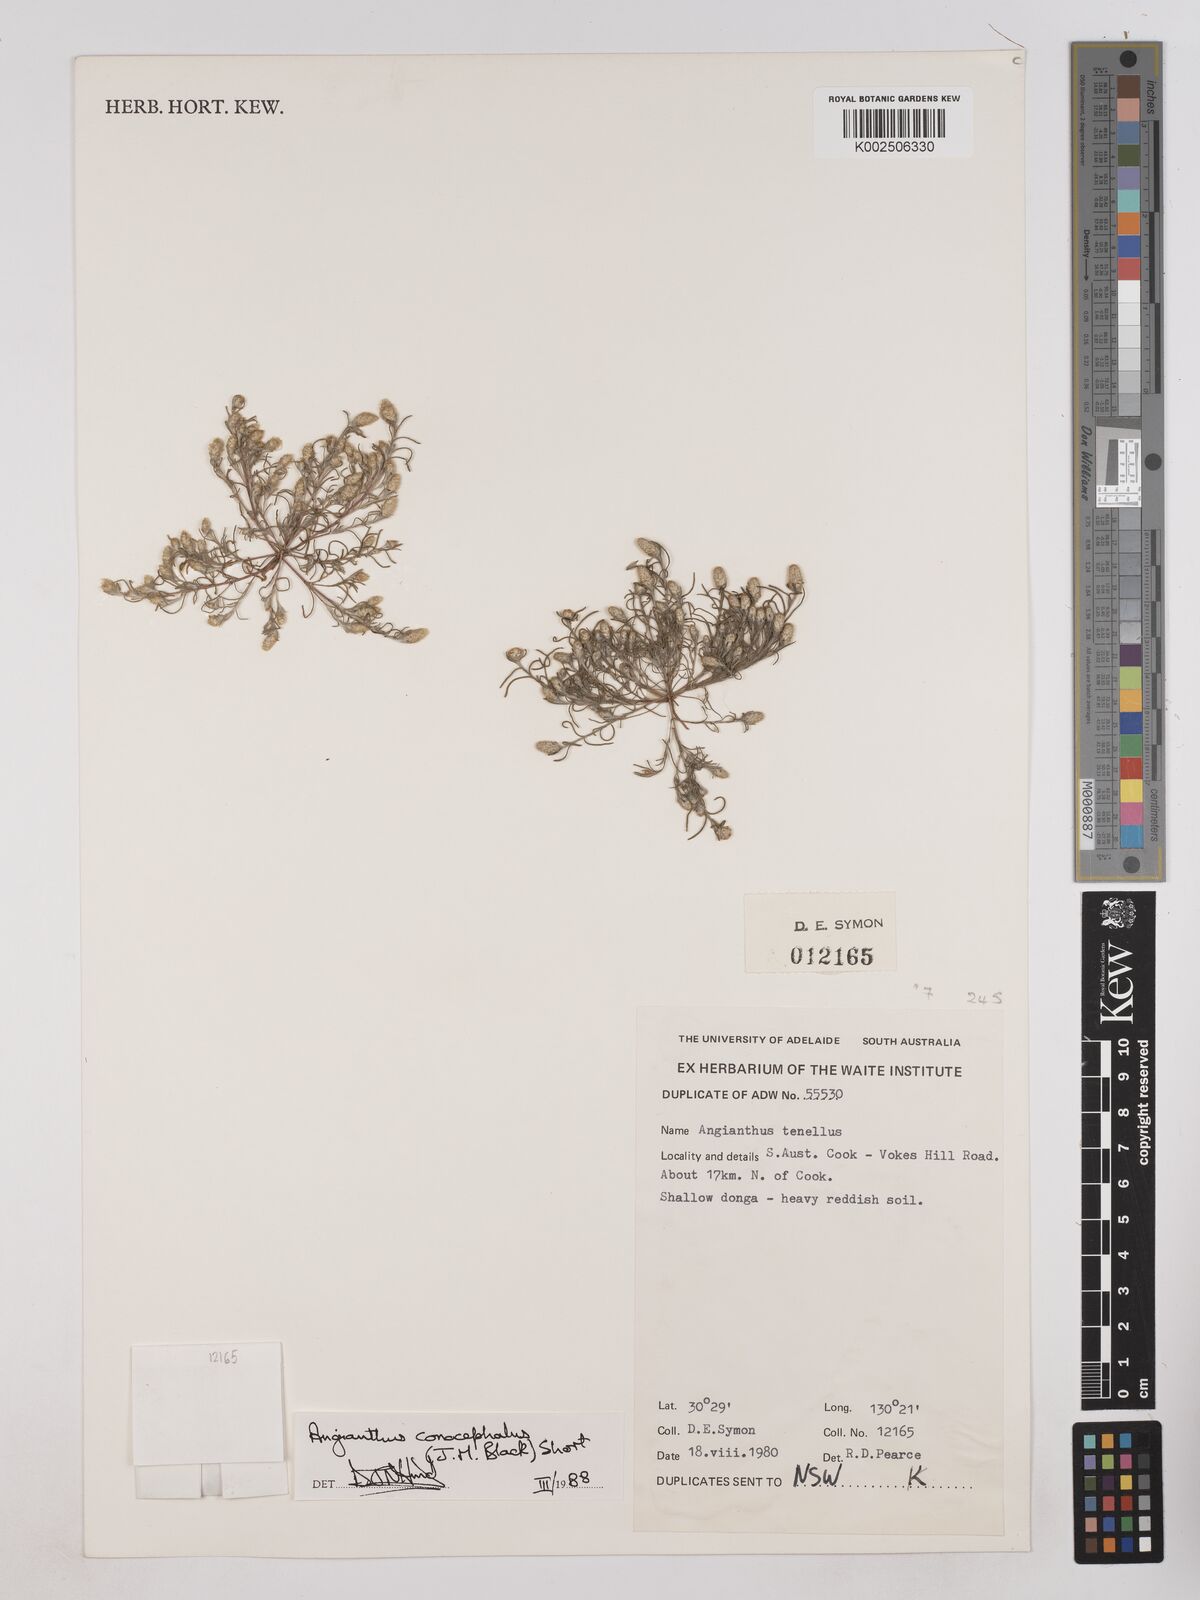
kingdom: Plantae
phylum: Tracheophyta
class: Magnoliopsida
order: Asterales
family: Asteraceae
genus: Angianthus
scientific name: Angianthus conocephalus
